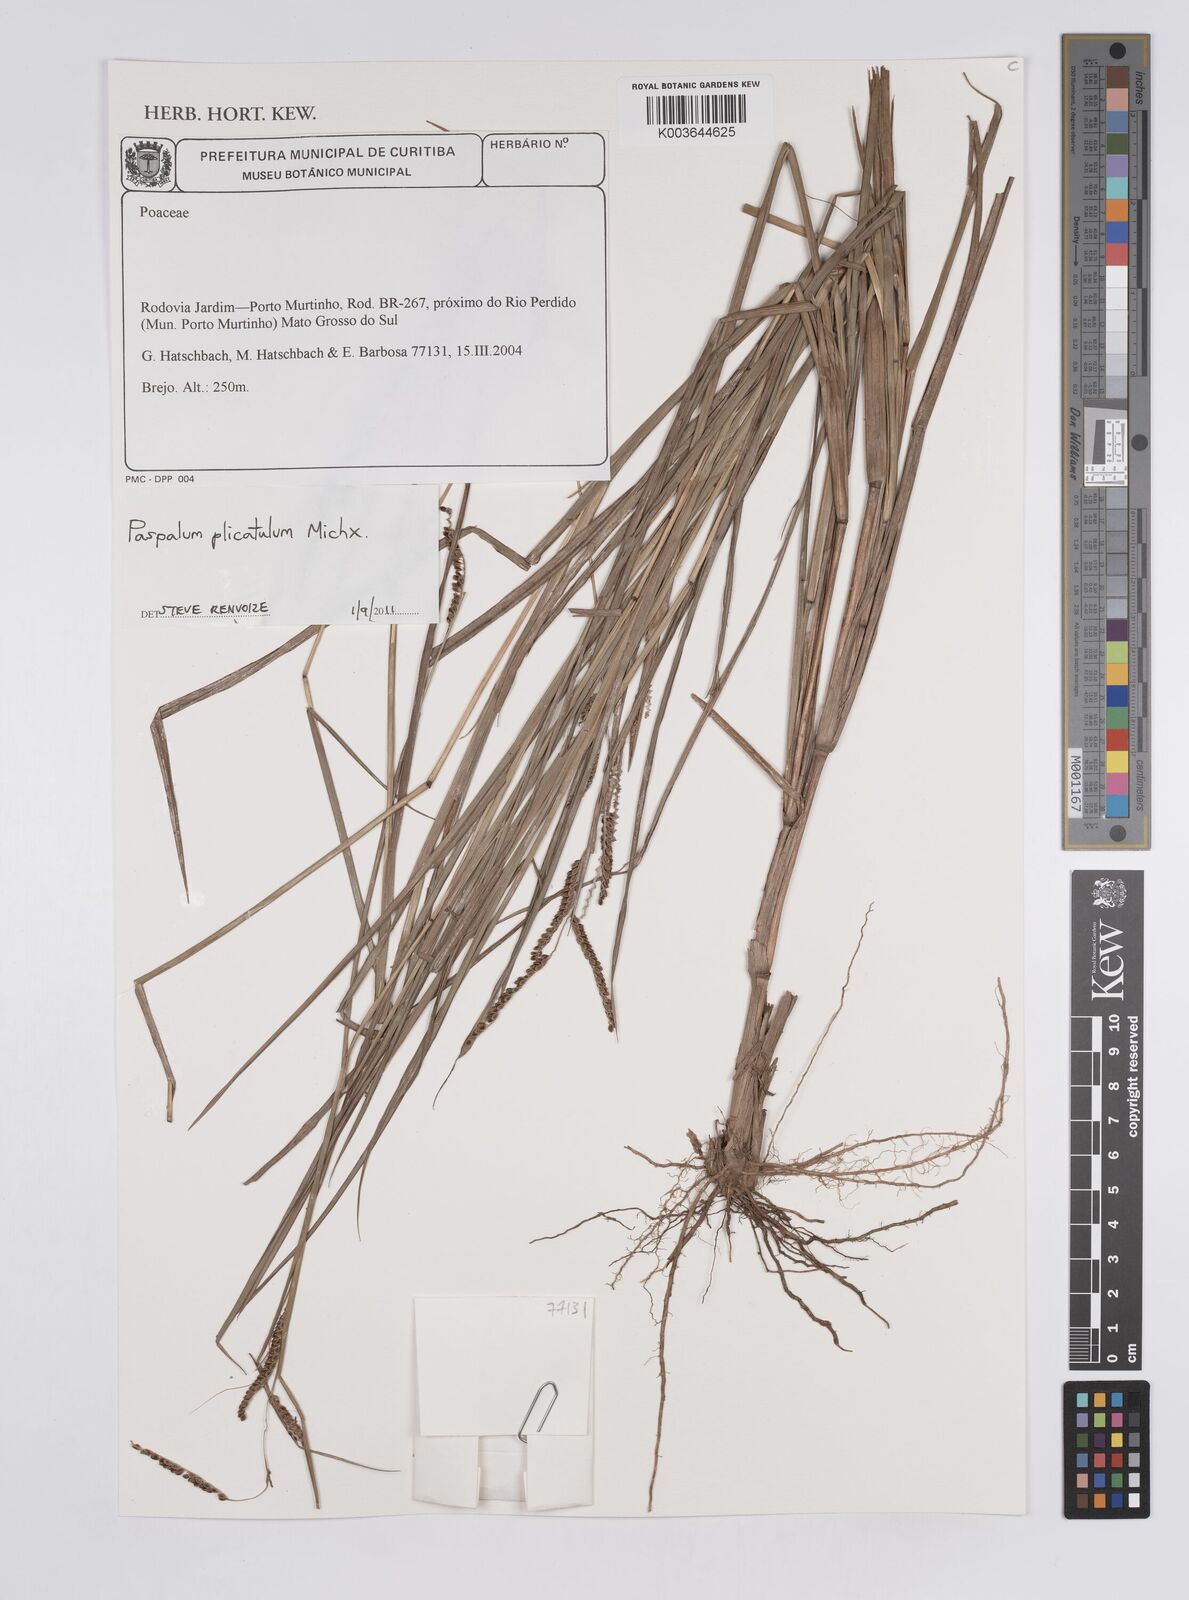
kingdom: Plantae
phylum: Tracheophyta
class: Liliopsida
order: Poales
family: Poaceae
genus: Paspalum
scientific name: Paspalum plicatulum
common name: Top paspalum
